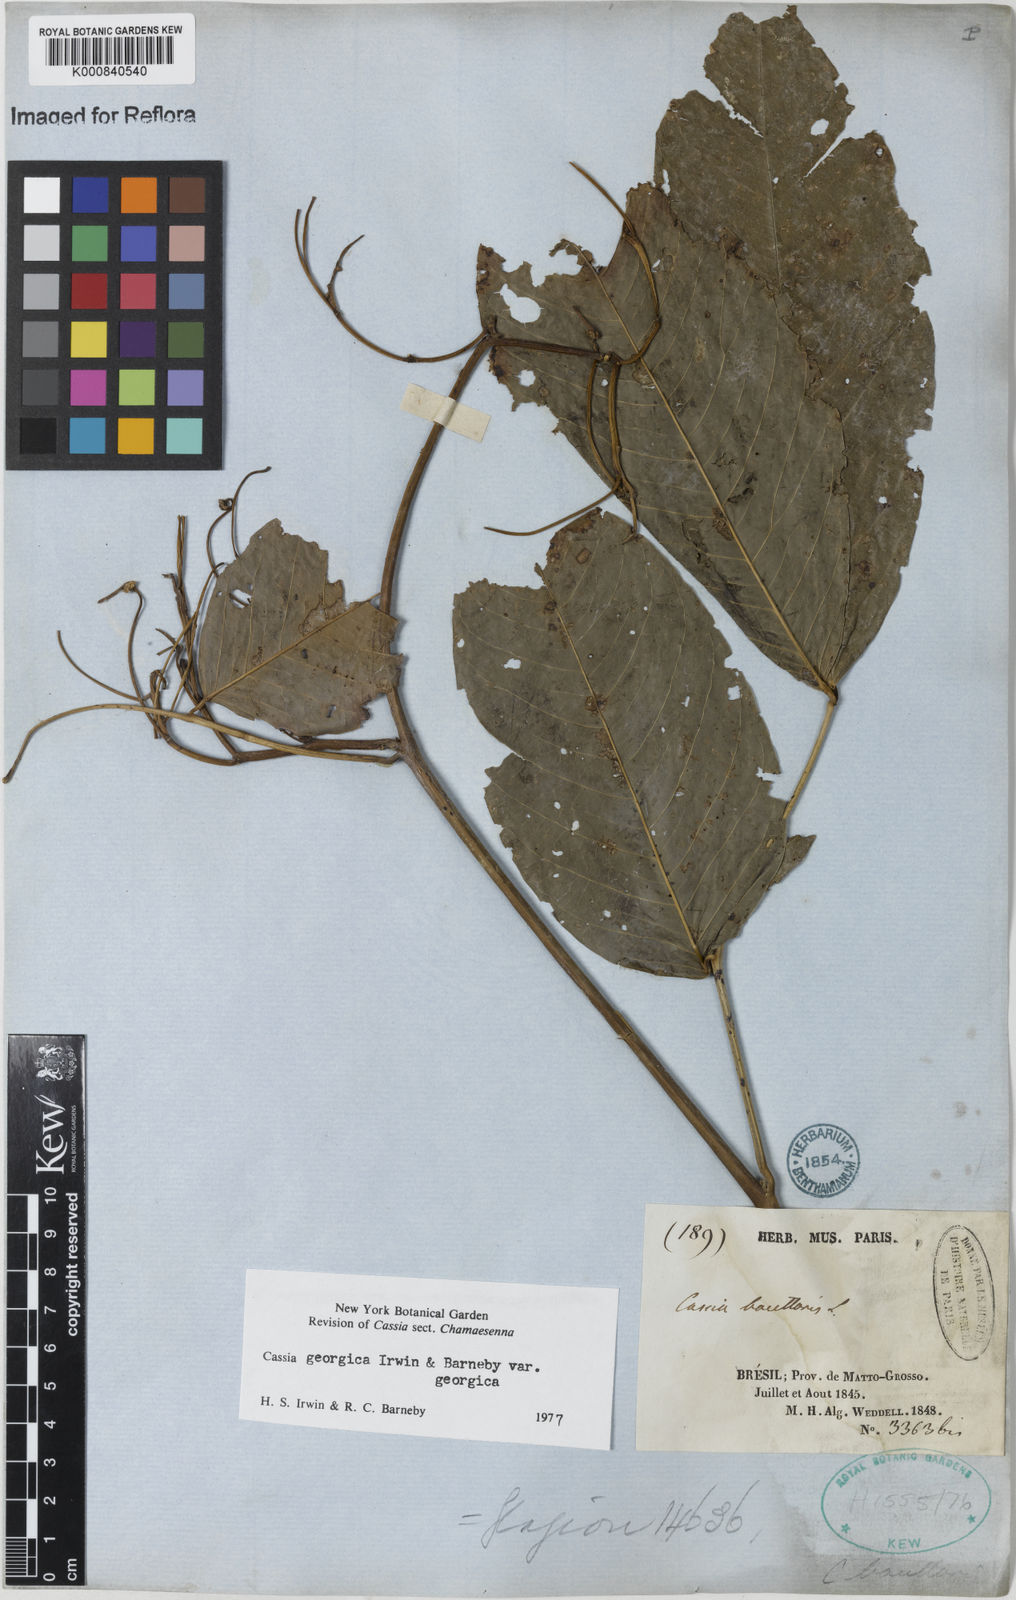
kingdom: Plantae
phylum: Tracheophyta
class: Magnoliopsida
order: Fabales
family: Fabaceae
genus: Senna
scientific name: Senna georgica
